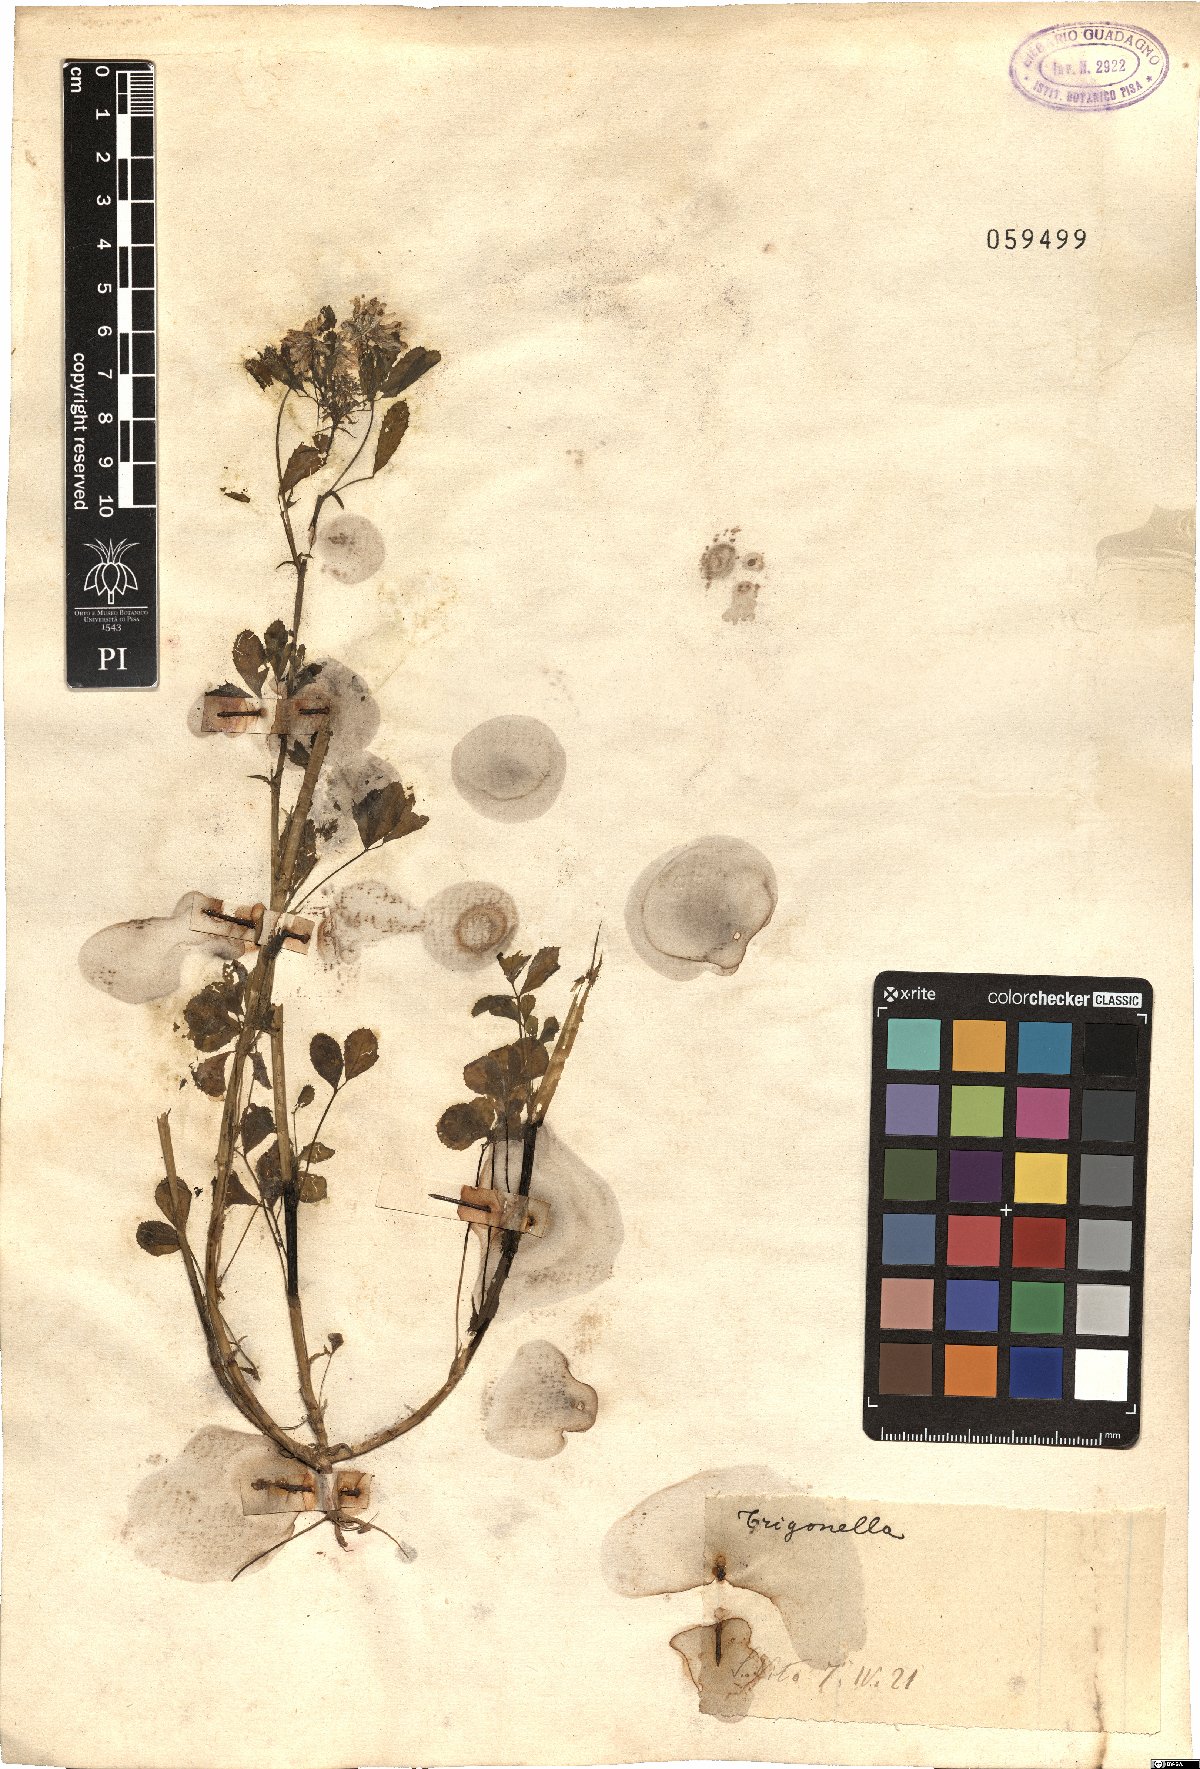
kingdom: Plantae
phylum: Tracheophyta
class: Magnoliopsida
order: Fabales
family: Fabaceae
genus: Trigonella
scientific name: Trigonella
